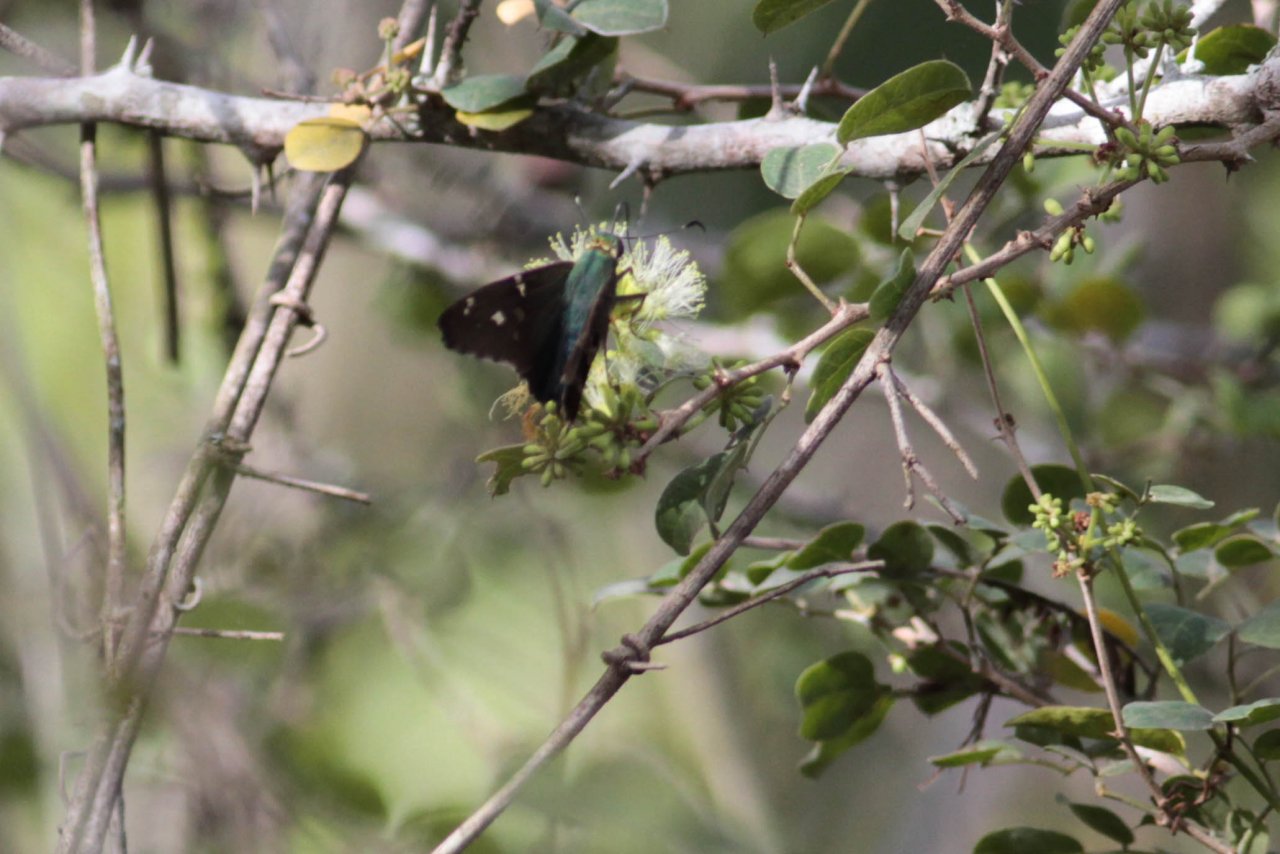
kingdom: Animalia
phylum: Arthropoda
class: Insecta
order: Lepidoptera
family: Hesperiidae
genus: Urbanus
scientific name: Urbanus proteus
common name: Long-tailed Skipper
